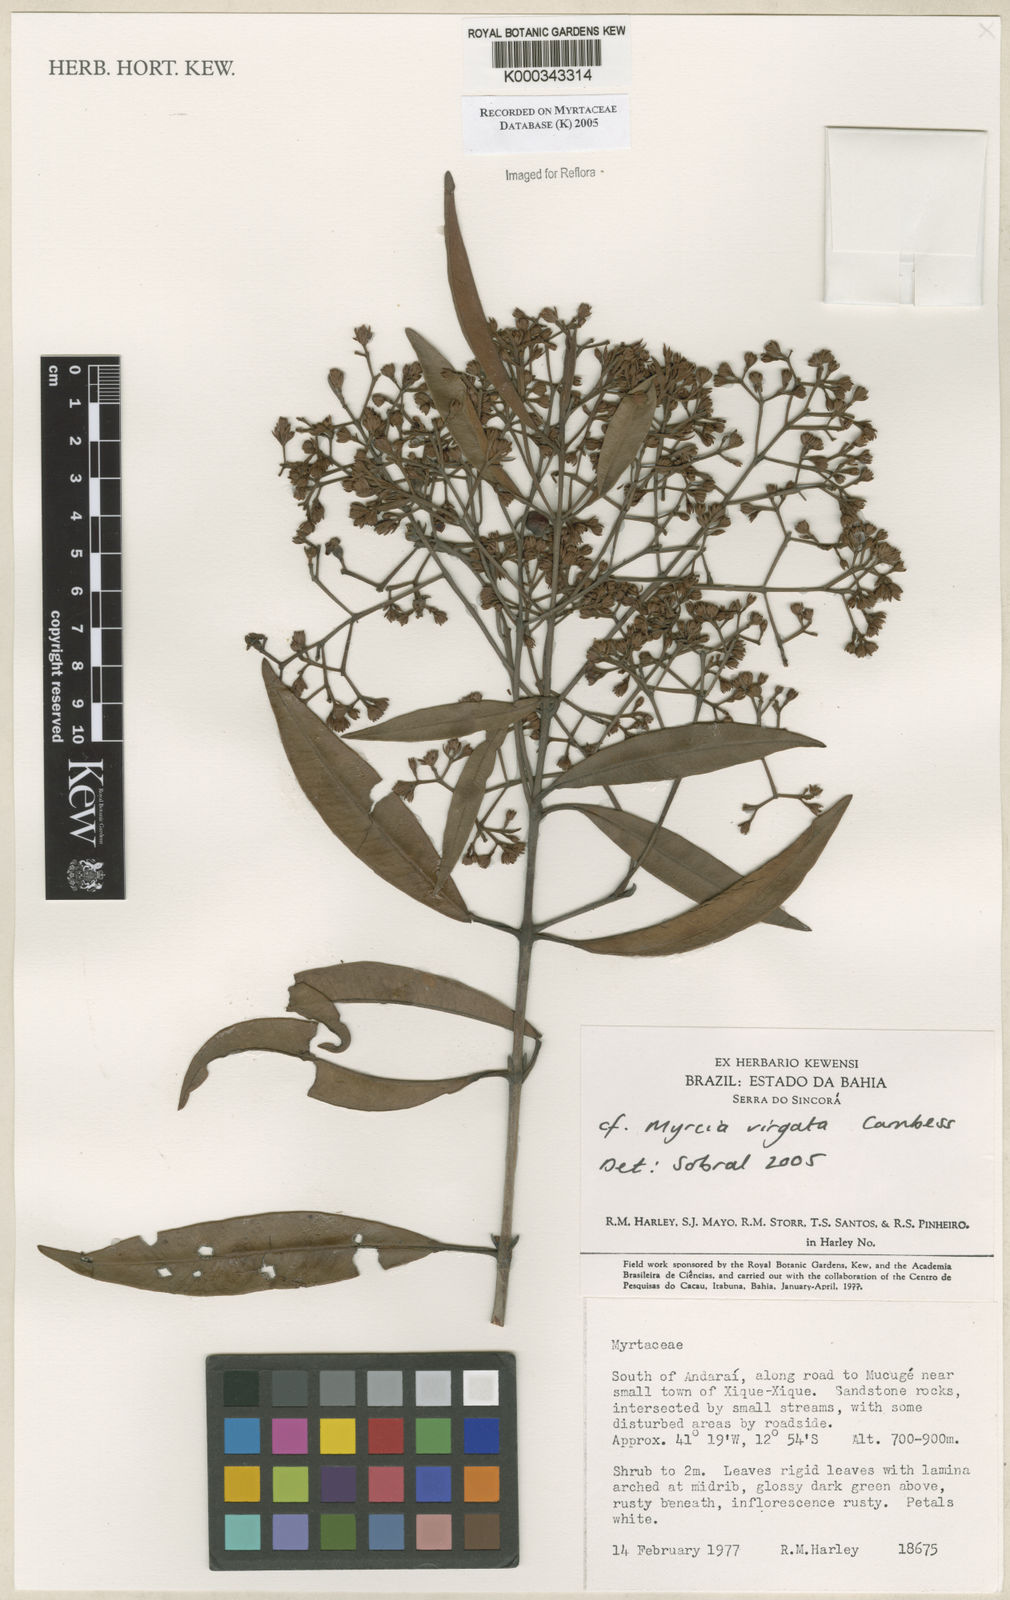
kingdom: Plantae
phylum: Tracheophyta
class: Magnoliopsida
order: Myrtales
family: Myrtaceae
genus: Myrcia
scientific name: Myrcia virgata
